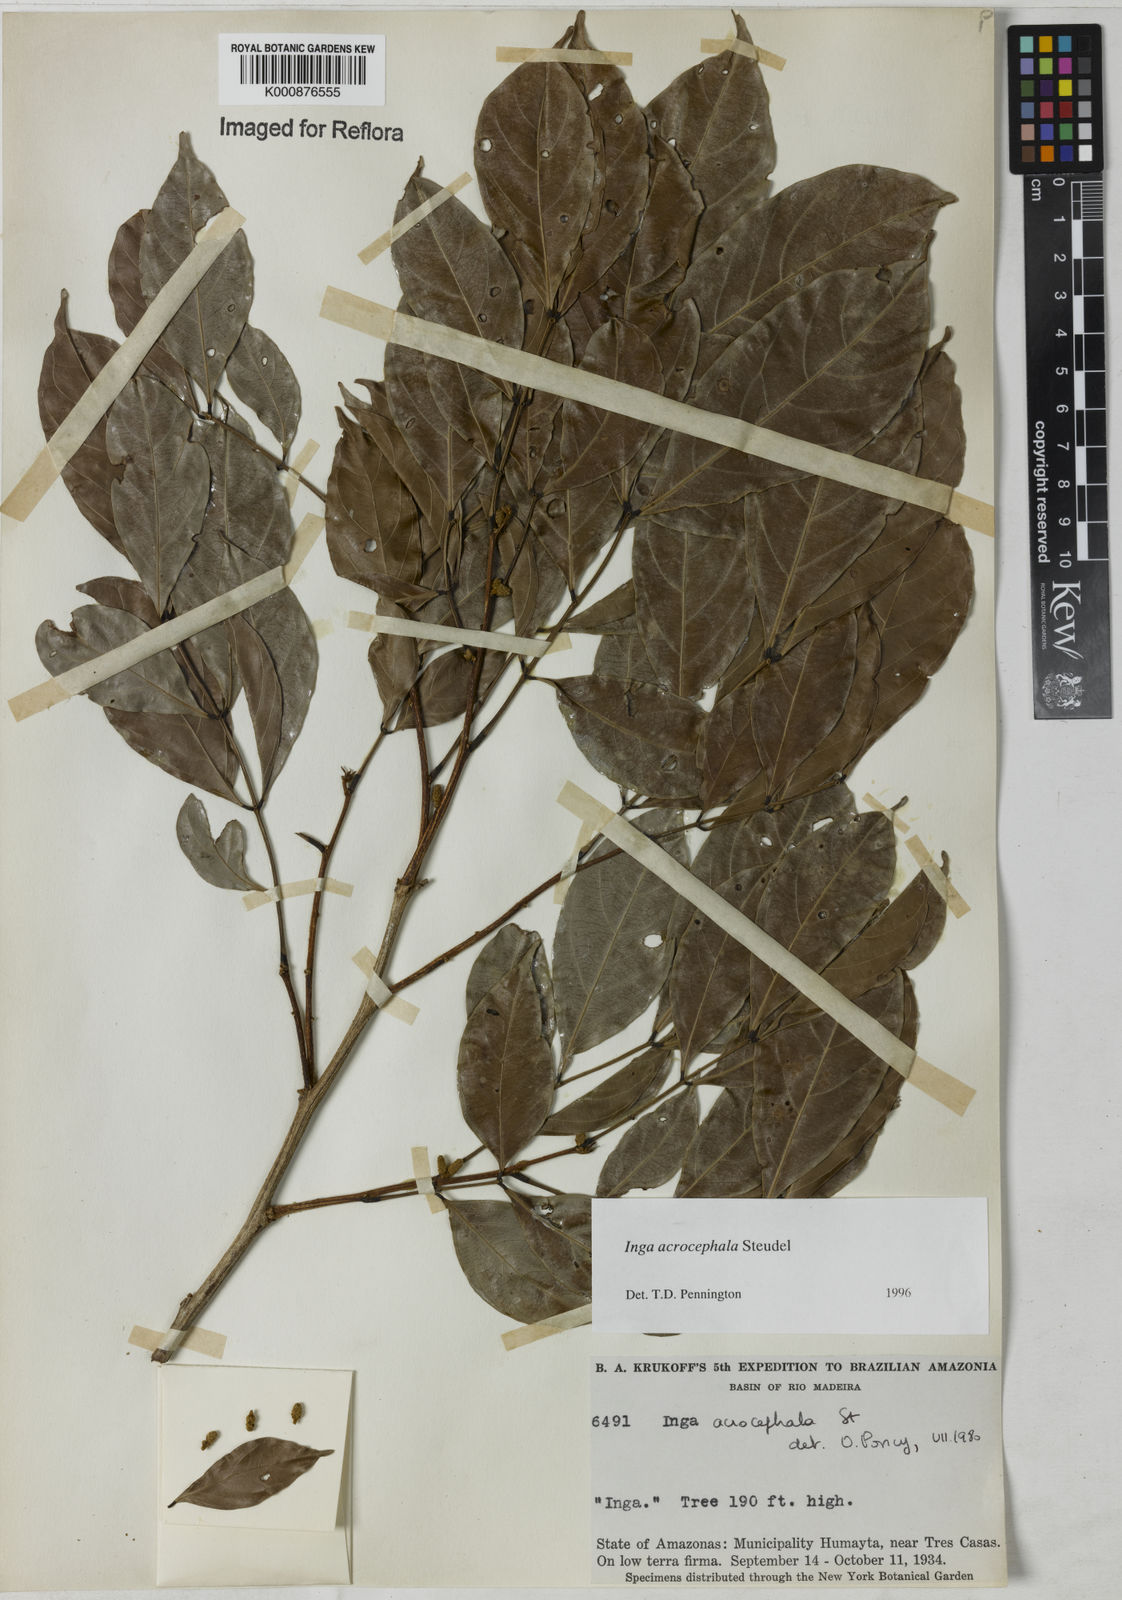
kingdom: Plantae
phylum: Tracheophyta
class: Magnoliopsida
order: Fabales
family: Fabaceae
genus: Inga
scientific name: Inga acrocephala
